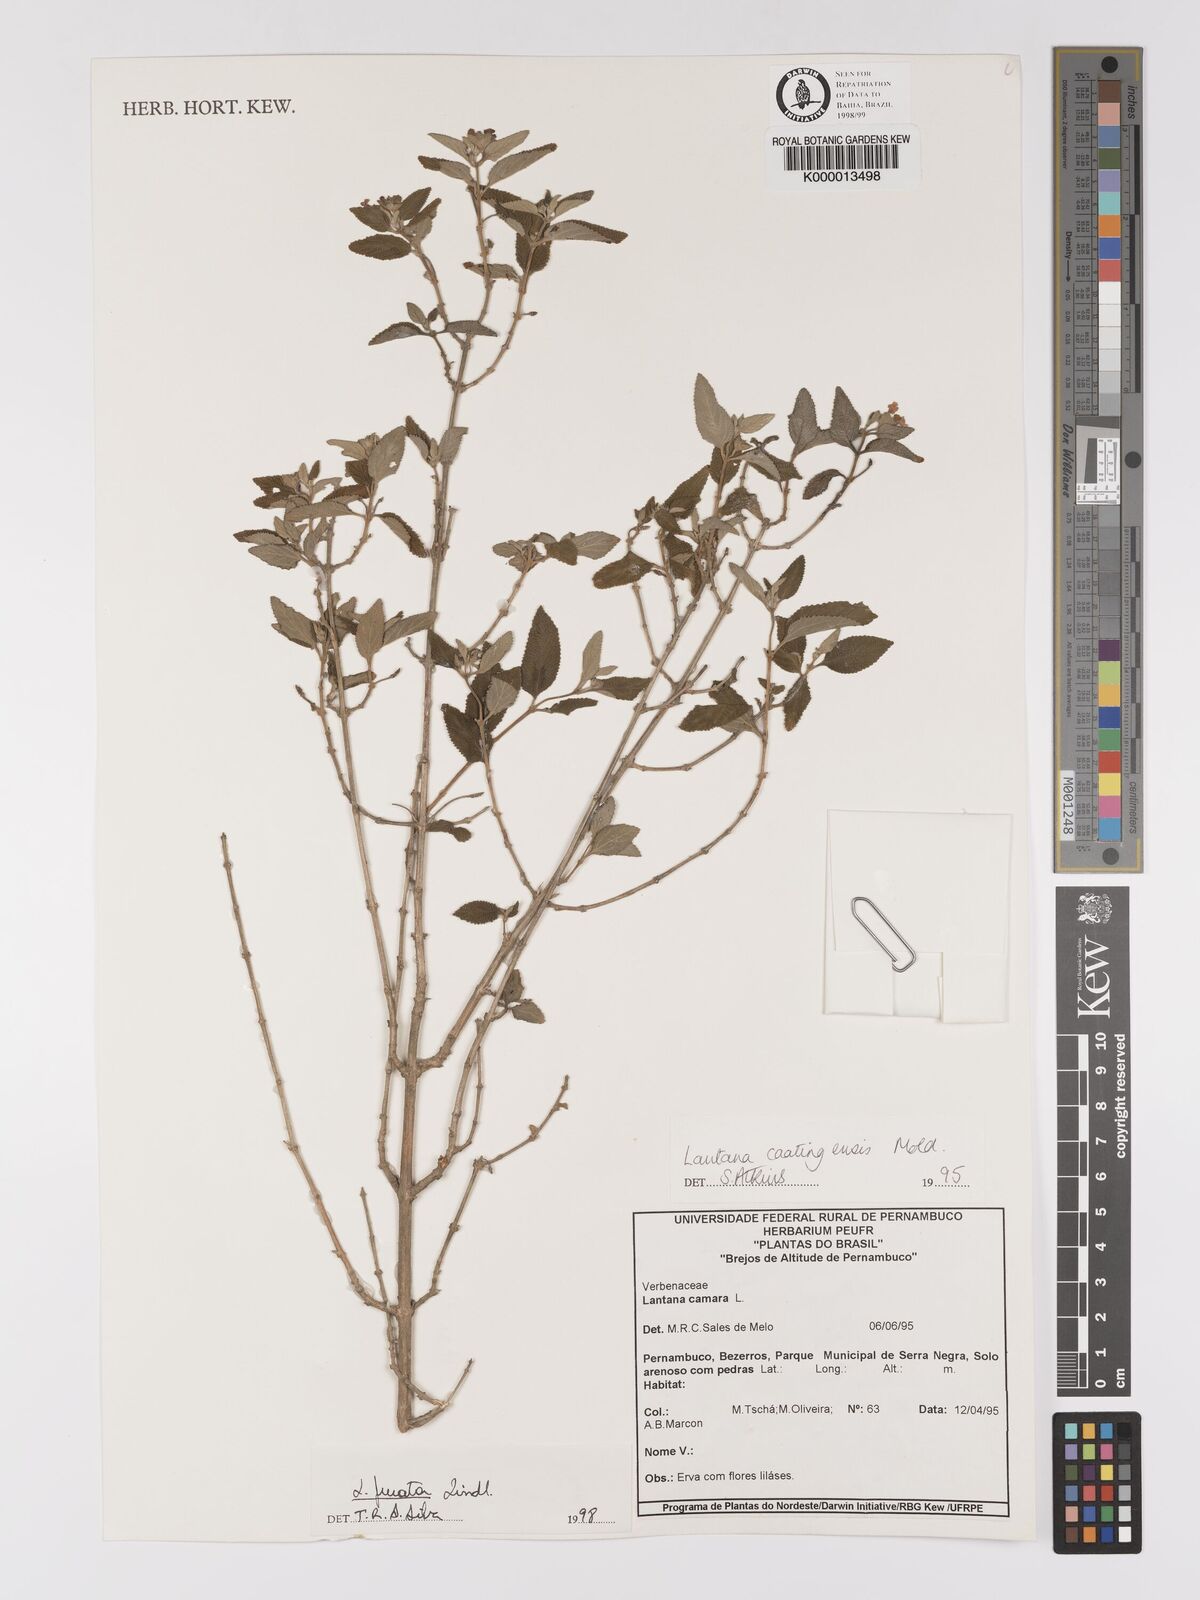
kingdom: Plantae
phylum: Tracheophyta
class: Magnoliopsida
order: Lamiales
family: Verbenaceae
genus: Lantana
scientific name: Lantana fucata
